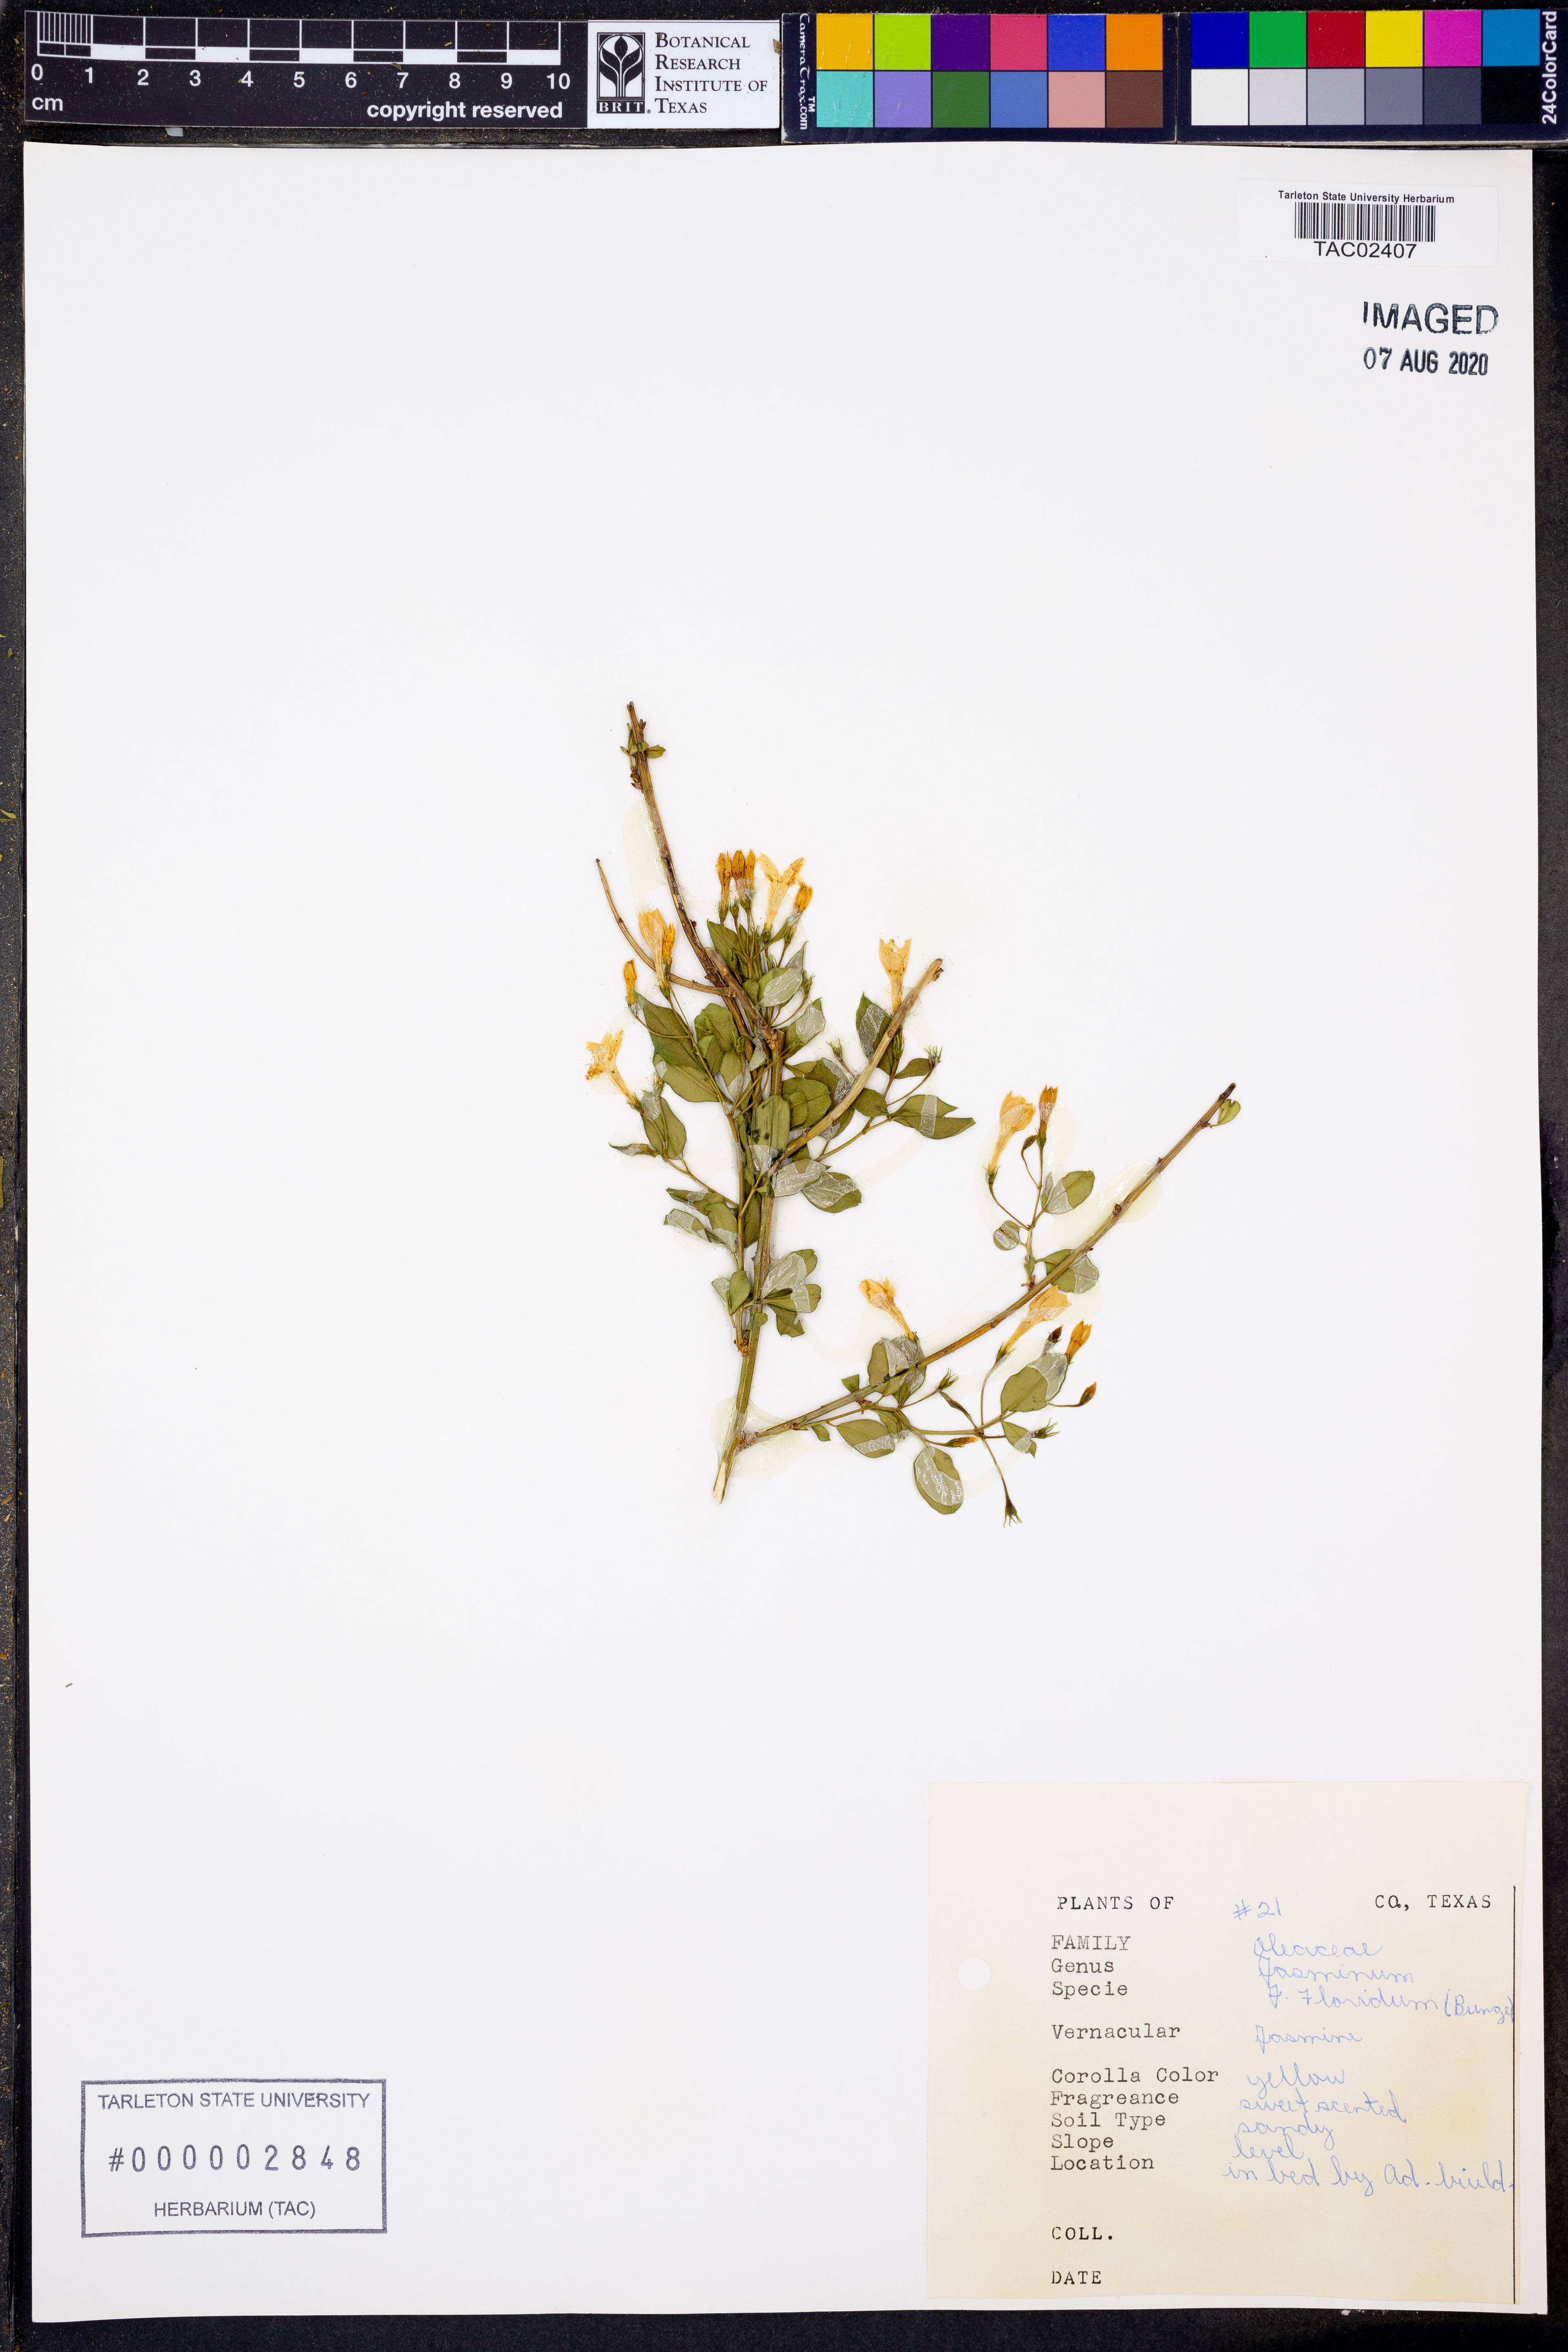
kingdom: Plantae
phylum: Tracheophyta
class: Magnoliopsida
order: Lamiales
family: Oleaceae
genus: Chrysojasminum
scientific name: Chrysojasminum floridum
